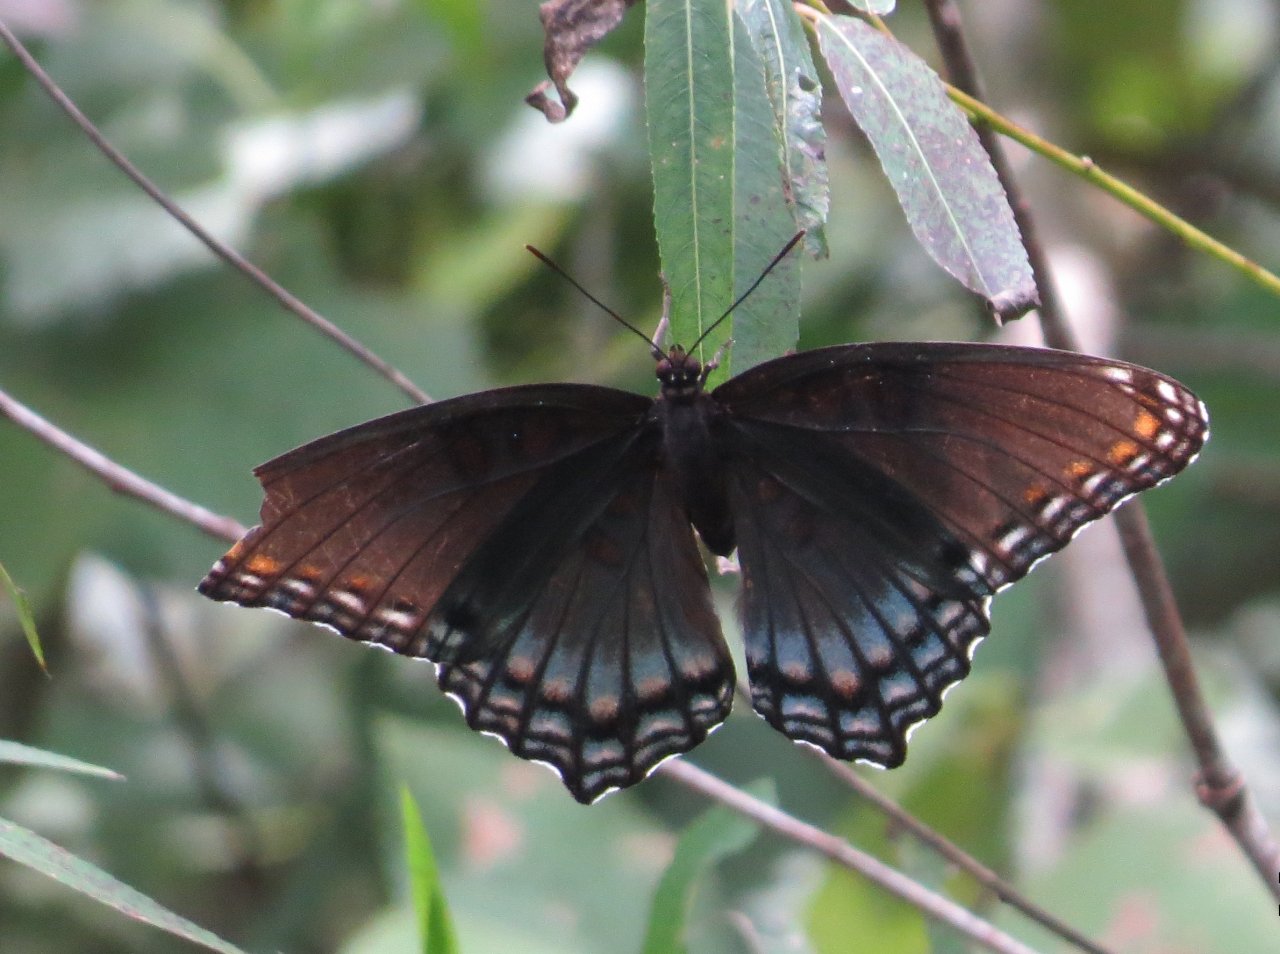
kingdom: Animalia
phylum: Arthropoda
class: Insecta
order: Lepidoptera
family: Nymphalidae
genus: Limenitis
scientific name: Limenitis astyanax
